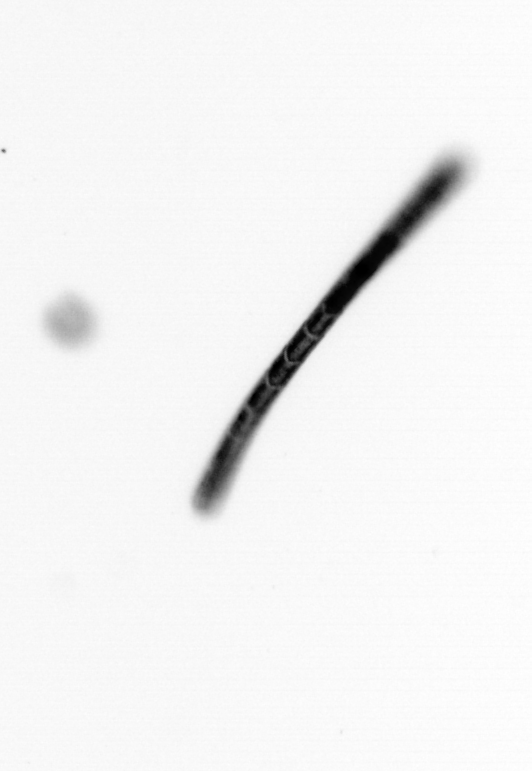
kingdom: Chromista
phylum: Ochrophyta
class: Bacillariophyceae
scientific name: Bacillariophyceae
